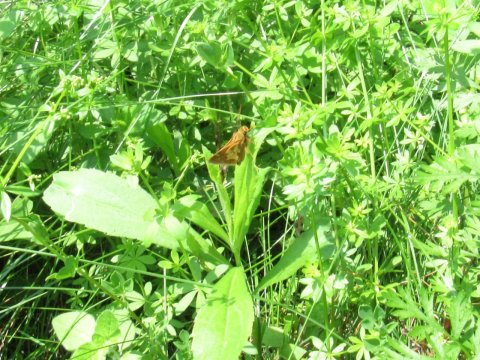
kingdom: Animalia
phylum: Arthropoda
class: Insecta
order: Lepidoptera
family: Hesperiidae
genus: Polites
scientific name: Polites coras
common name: Peck's Skipper
